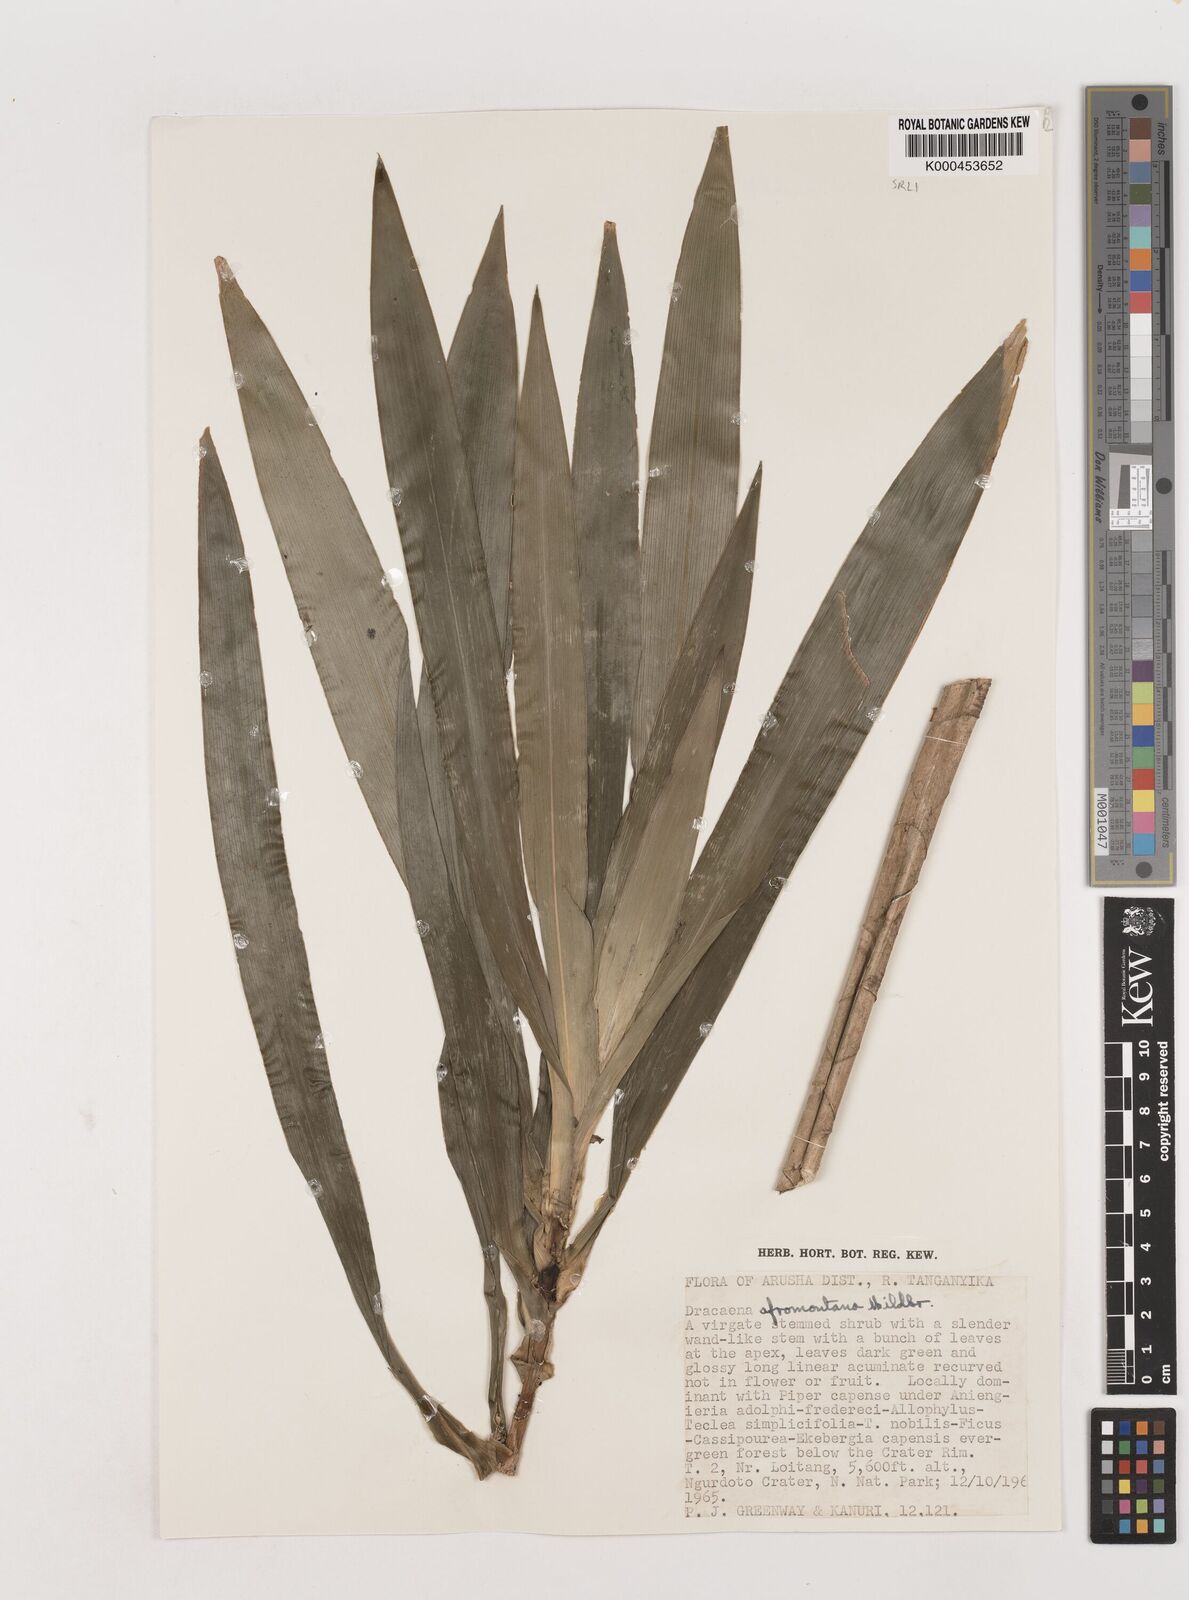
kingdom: Plantae
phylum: Tracheophyta
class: Liliopsida
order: Asparagales
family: Asparagaceae
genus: Dracaena
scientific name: Dracaena afromontana
